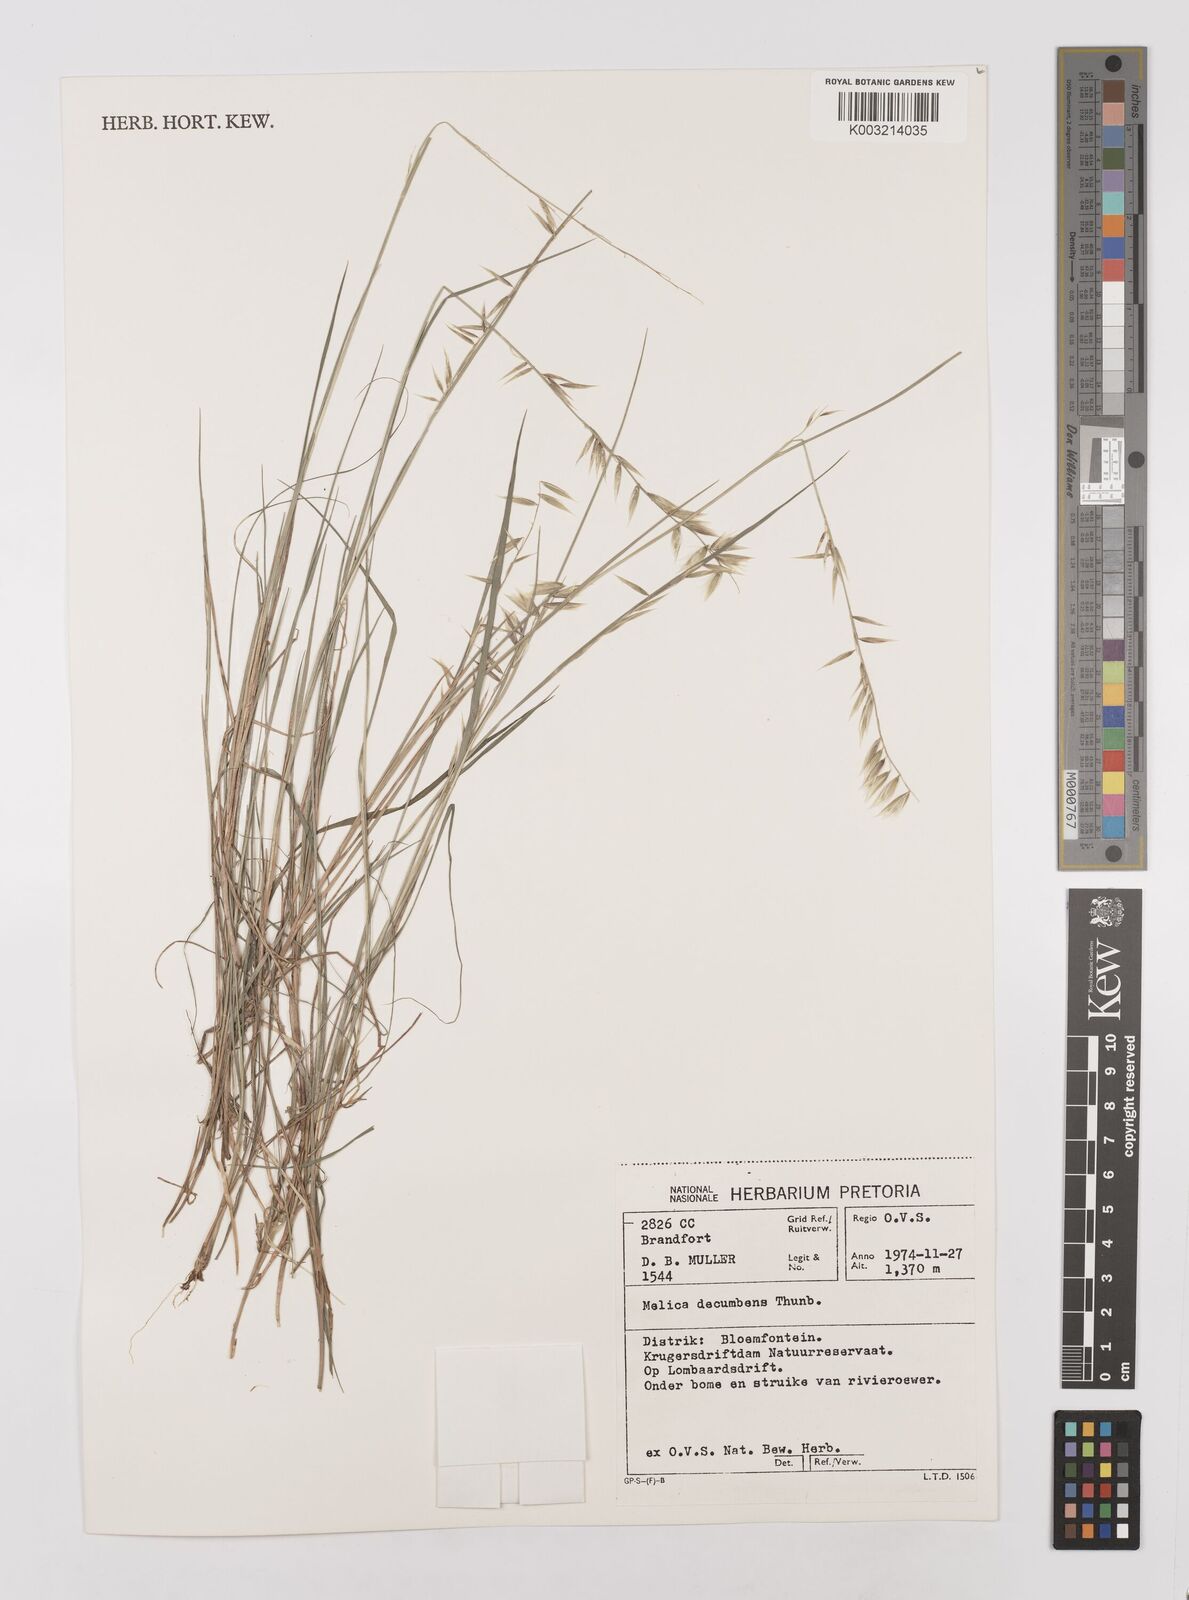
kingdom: Plantae
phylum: Tracheophyta
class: Liliopsida
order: Poales
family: Poaceae
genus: Melica
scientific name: Melica dendroides
